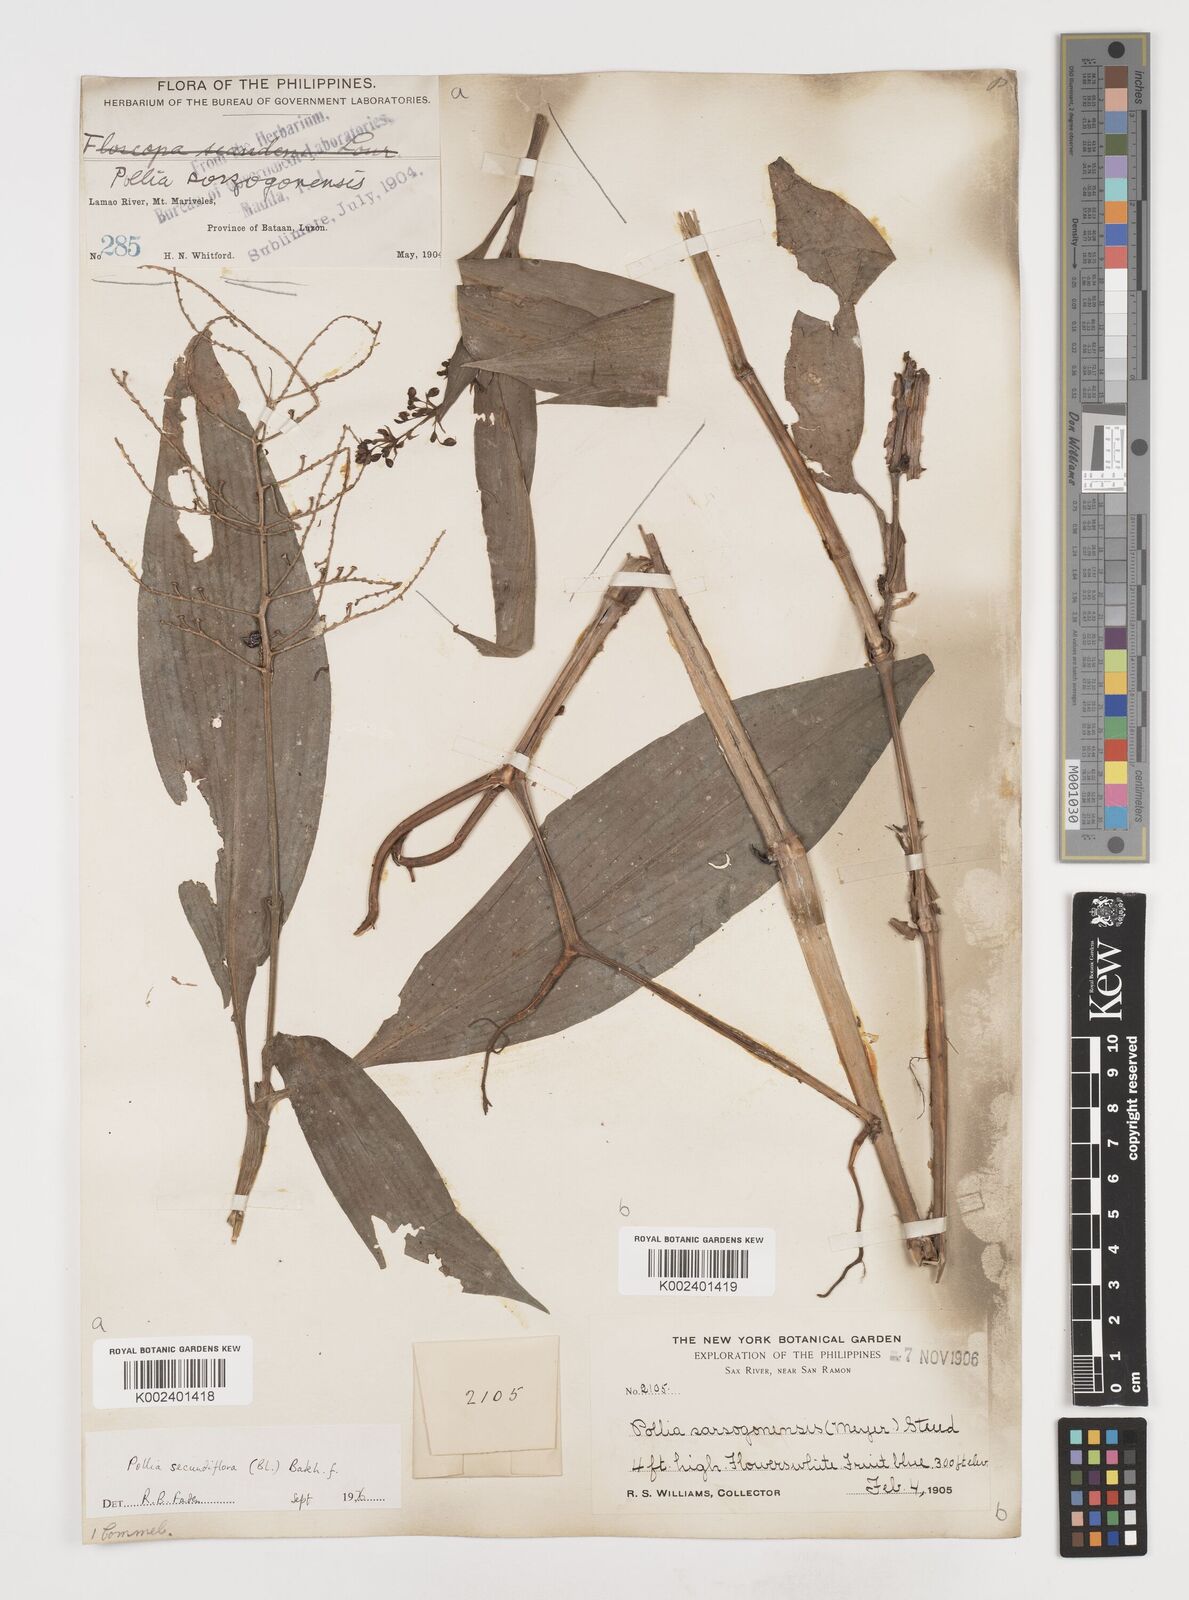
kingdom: Plantae
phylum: Tracheophyta
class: Liliopsida
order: Commelinales
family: Commelinaceae
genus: Pollia
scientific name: Pollia secundiflora
